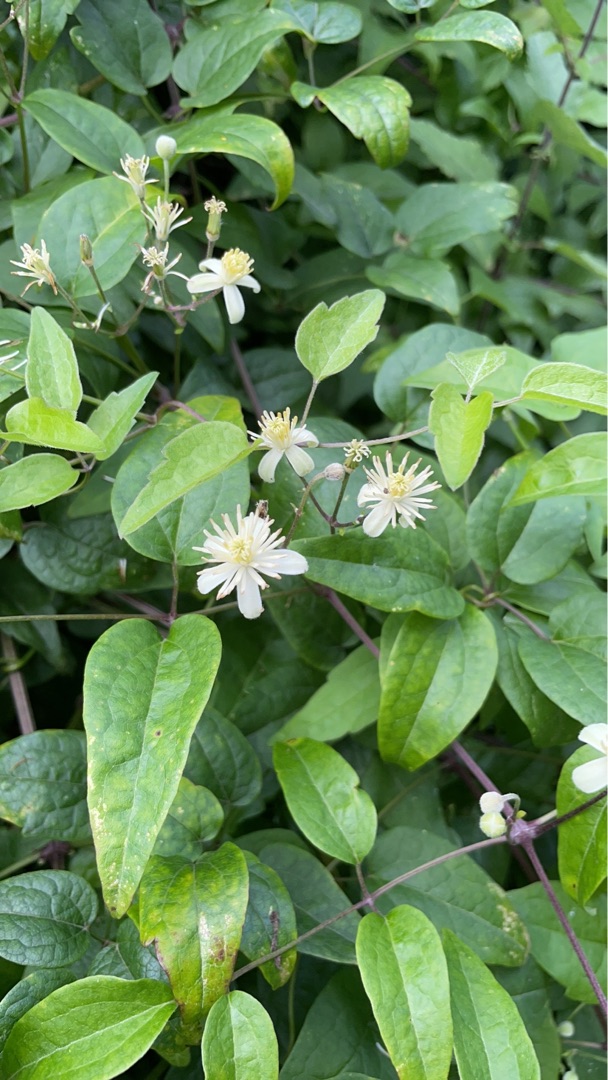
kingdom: Plantae
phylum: Tracheophyta
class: Magnoliopsida
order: Ranunculales
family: Ranunculaceae
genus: Clematis
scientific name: Clematis vitalba
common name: Skovranke
